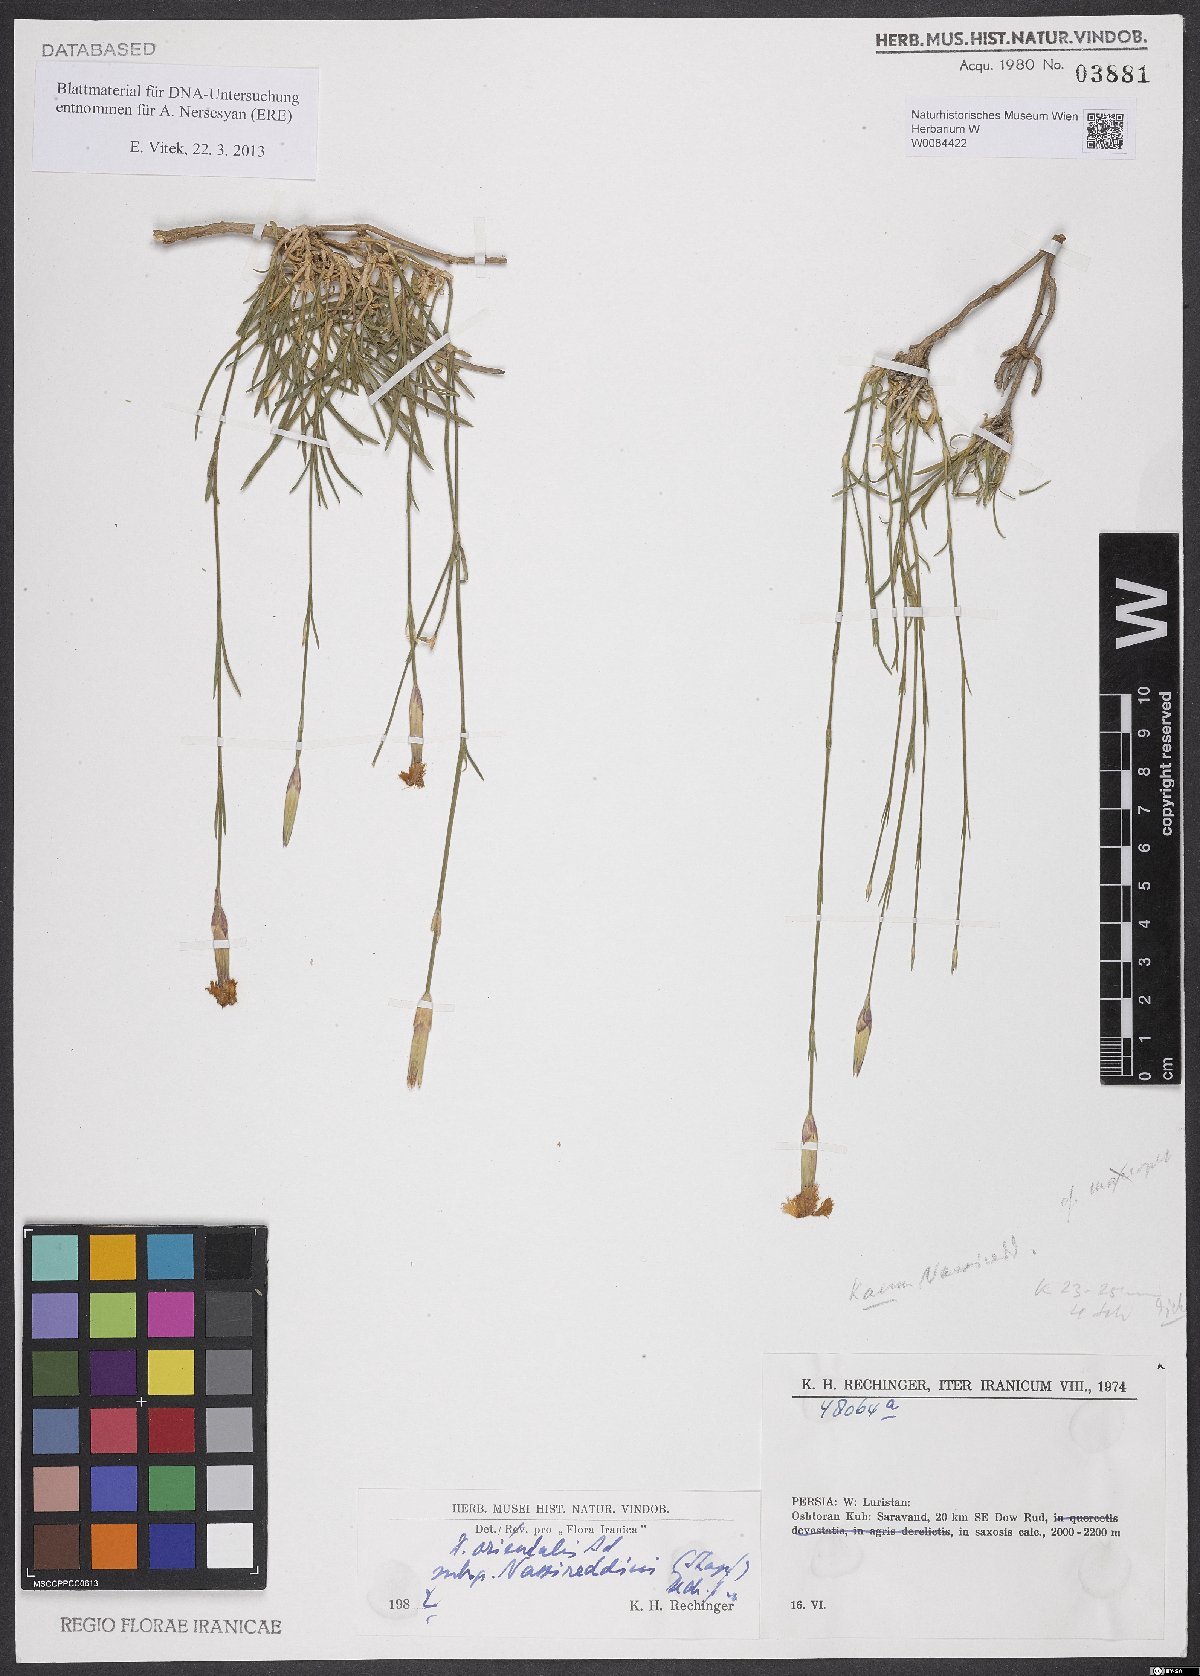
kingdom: Plantae
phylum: Tracheophyta
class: Magnoliopsida
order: Caryophyllales
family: Caryophyllaceae
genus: Dianthus
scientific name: Dianthus orientalis
